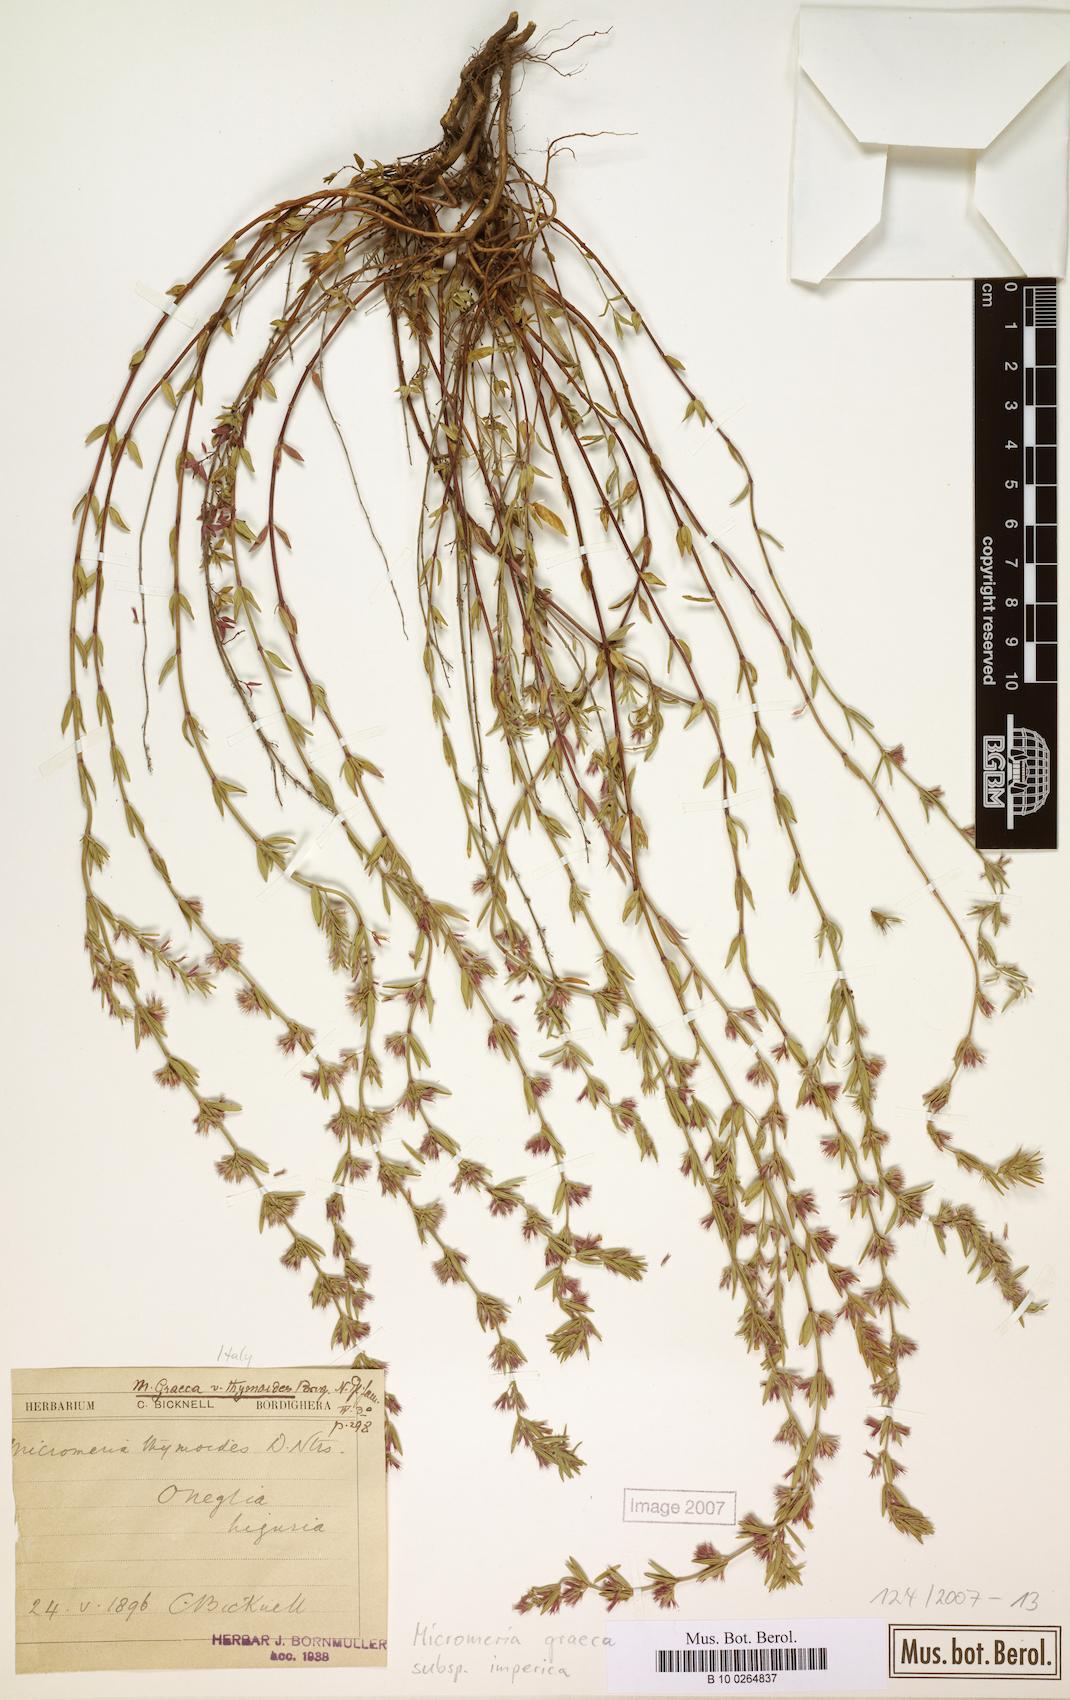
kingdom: Plantae
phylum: Tracheophyta
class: Magnoliopsida
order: Lamiales
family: Lamiaceae
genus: Micromeria
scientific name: Micromeria graeca
